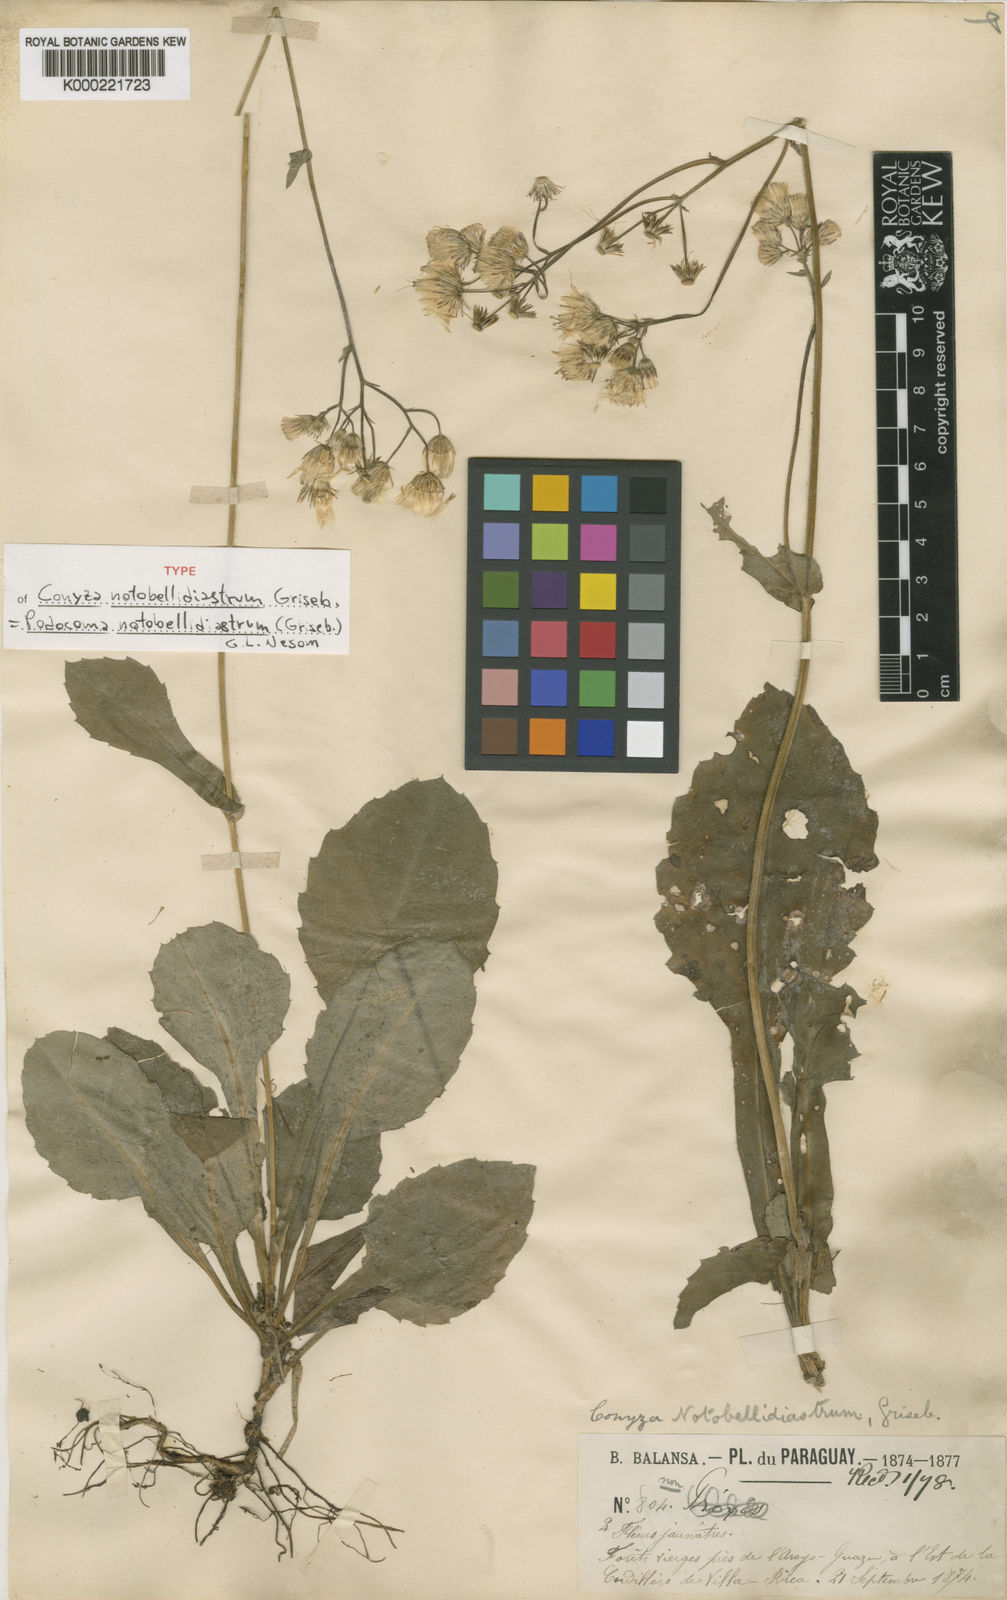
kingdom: Plantae
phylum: Tracheophyta
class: Magnoliopsida
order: Asterales
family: Asteraceae
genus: Exostigma
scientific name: Exostigma notobellidiastrum
